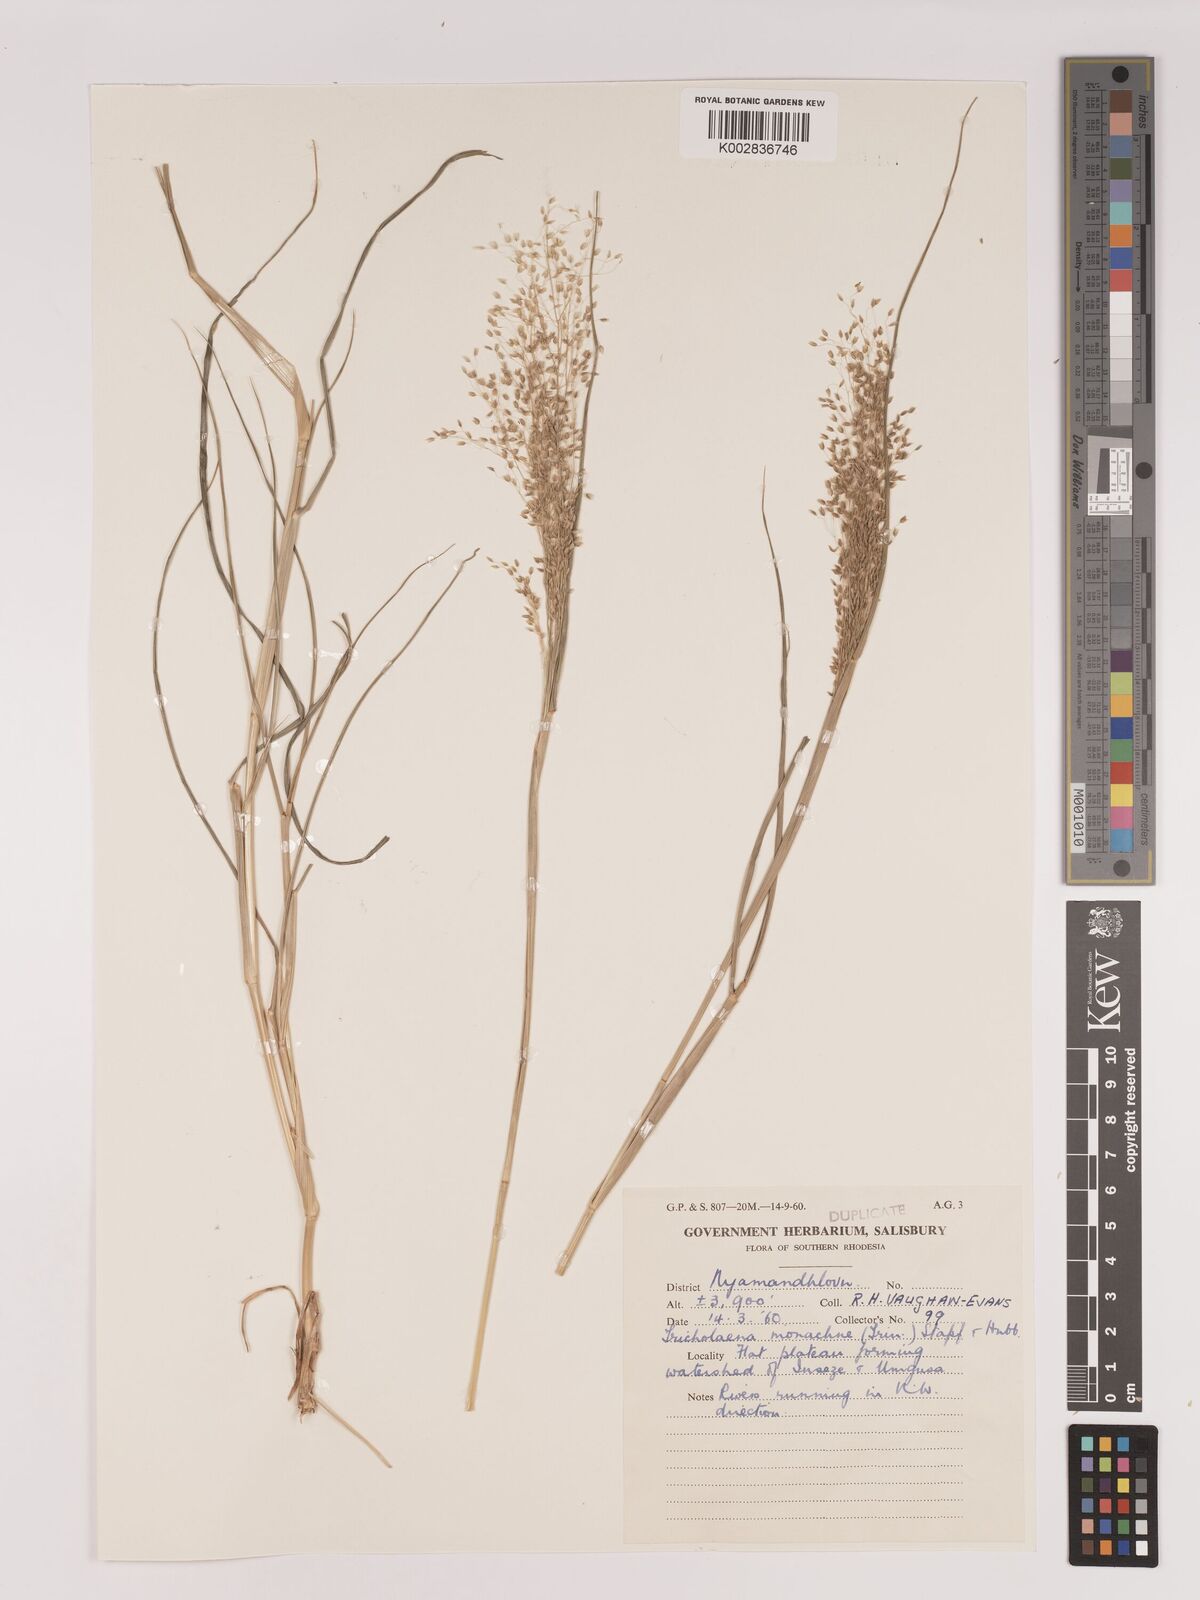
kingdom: Plantae
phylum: Tracheophyta
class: Liliopsida
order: Poales
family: Poaceae
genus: Tricholaena
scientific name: Tricholaena monachne
